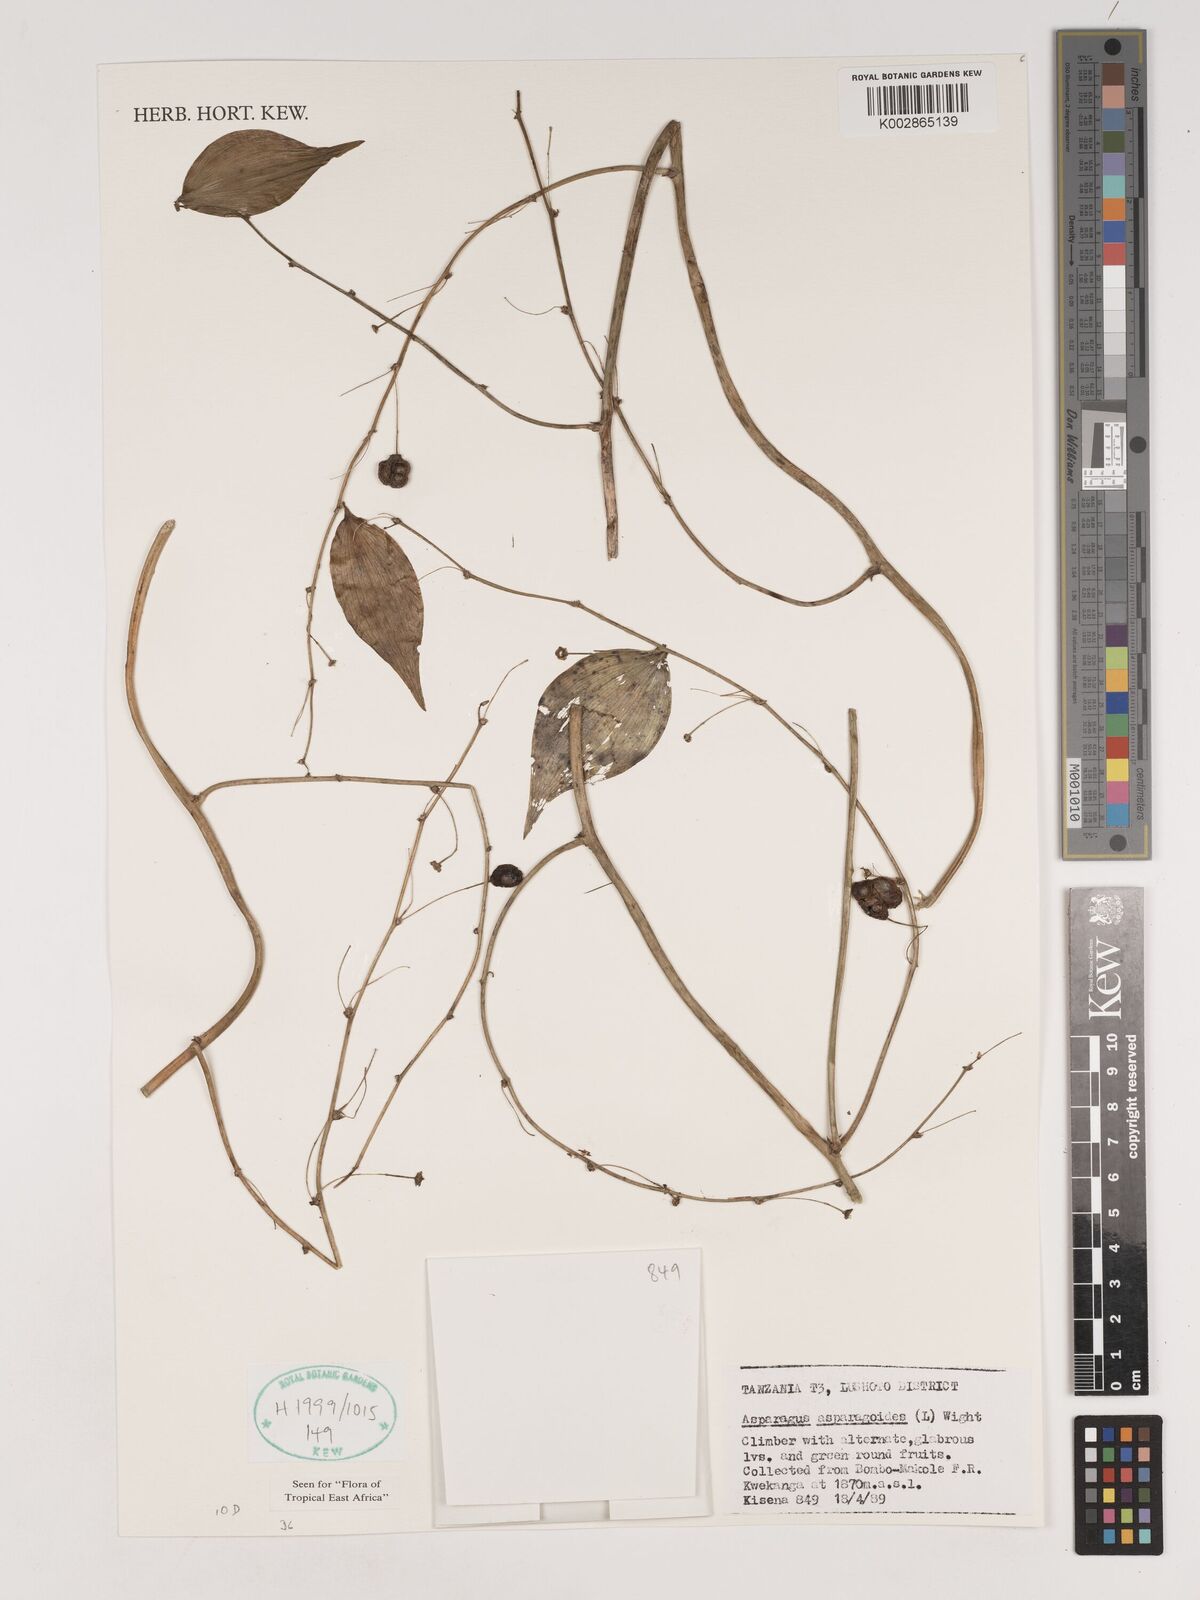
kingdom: Plantae
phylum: Tracheophyta
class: Liliopsida
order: Asparagales
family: Asparagaceae
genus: Asparagus
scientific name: Asparagus asparagoides
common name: African asparagus fern
